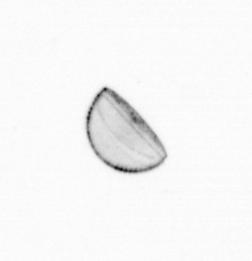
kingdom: Chromista
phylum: Ochrophyta
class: Bacillariophyceae
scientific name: Bacillariophyceae
